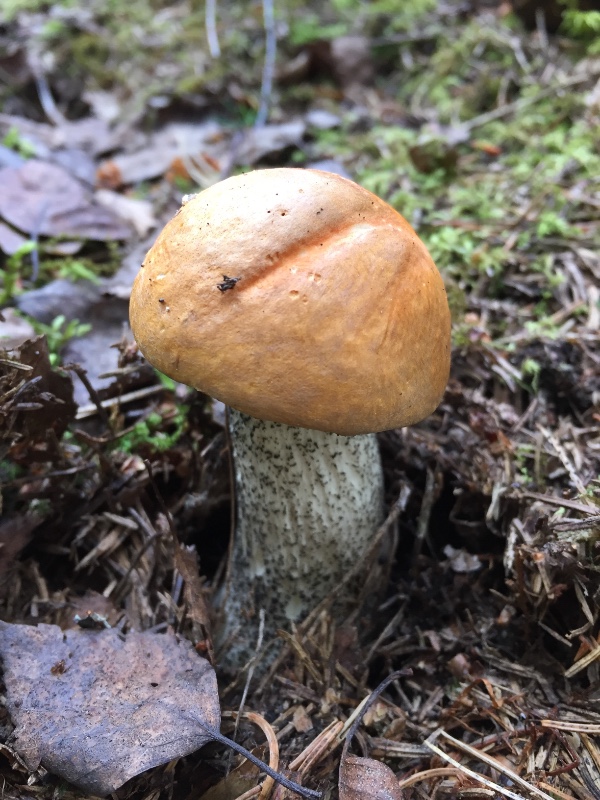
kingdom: Fungi
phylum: Basidiomycota
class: Agaricomycetes
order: Boletales
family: Boletaceae
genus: Leccinum
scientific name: Leccinum versipelle
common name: orange skælrørhat
